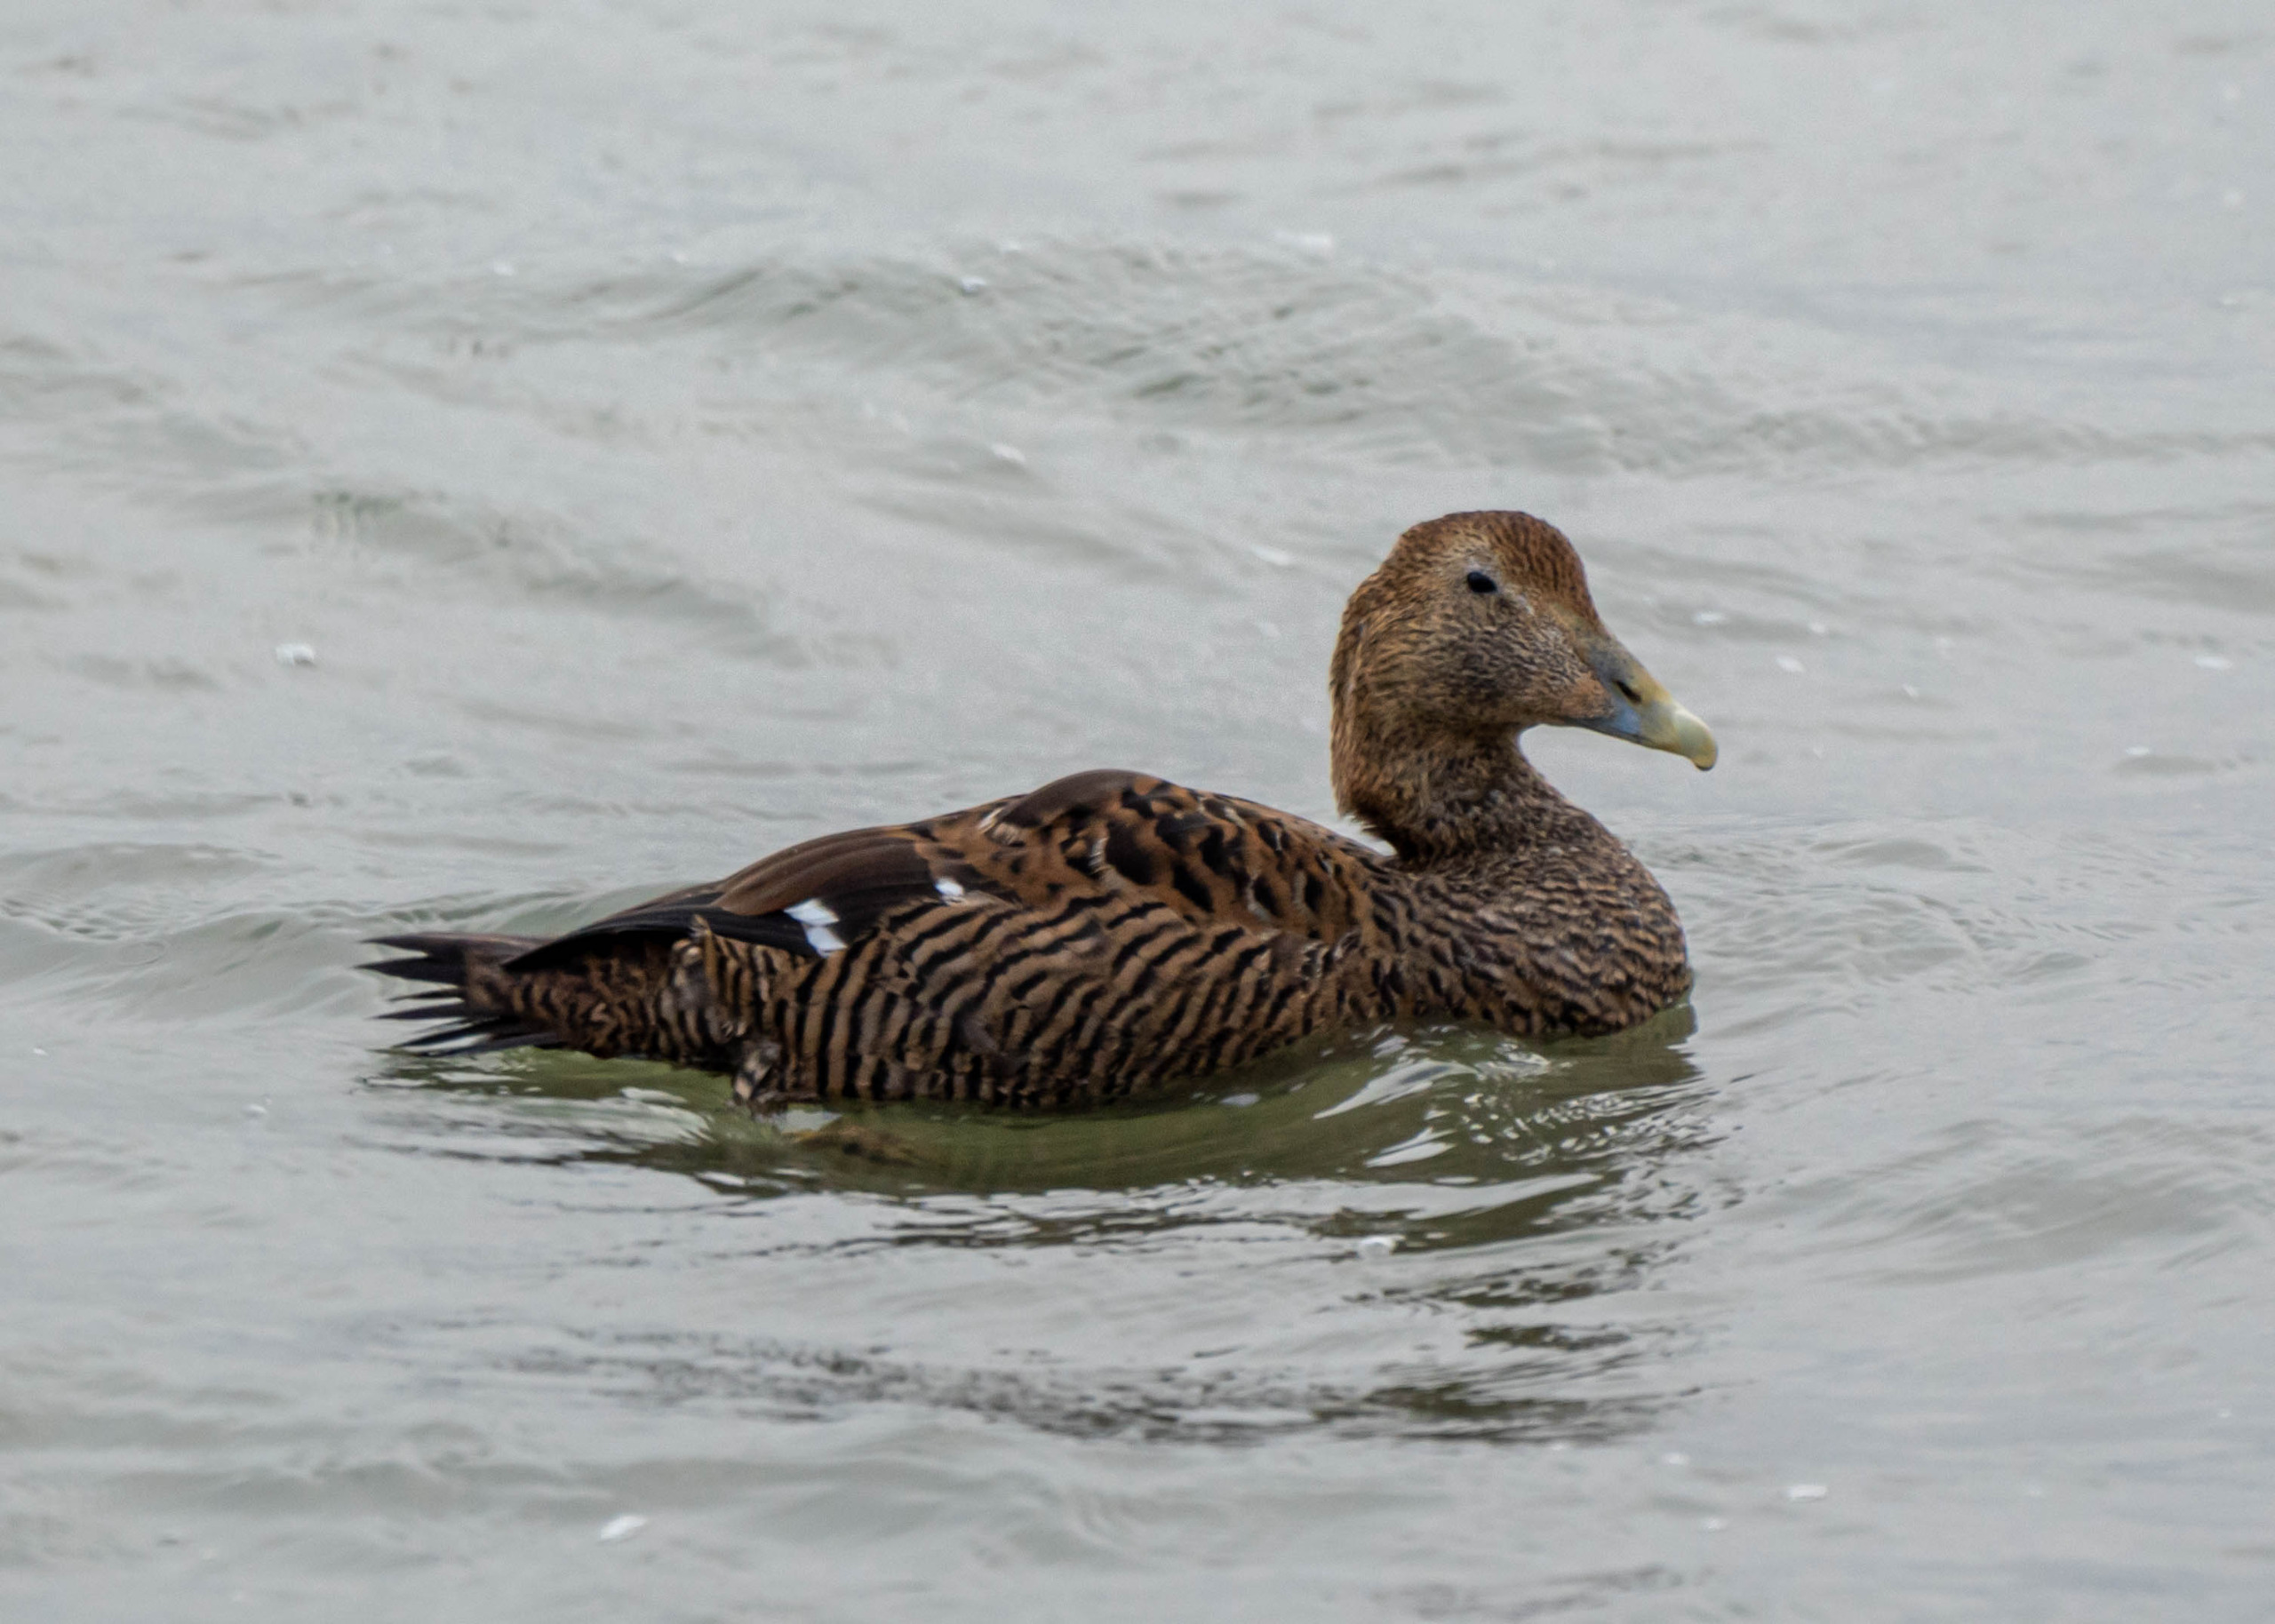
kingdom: Animalia
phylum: Chordata
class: Aves
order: Anseriformes
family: Anatidae
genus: Somateria
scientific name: Somateria mollissima
